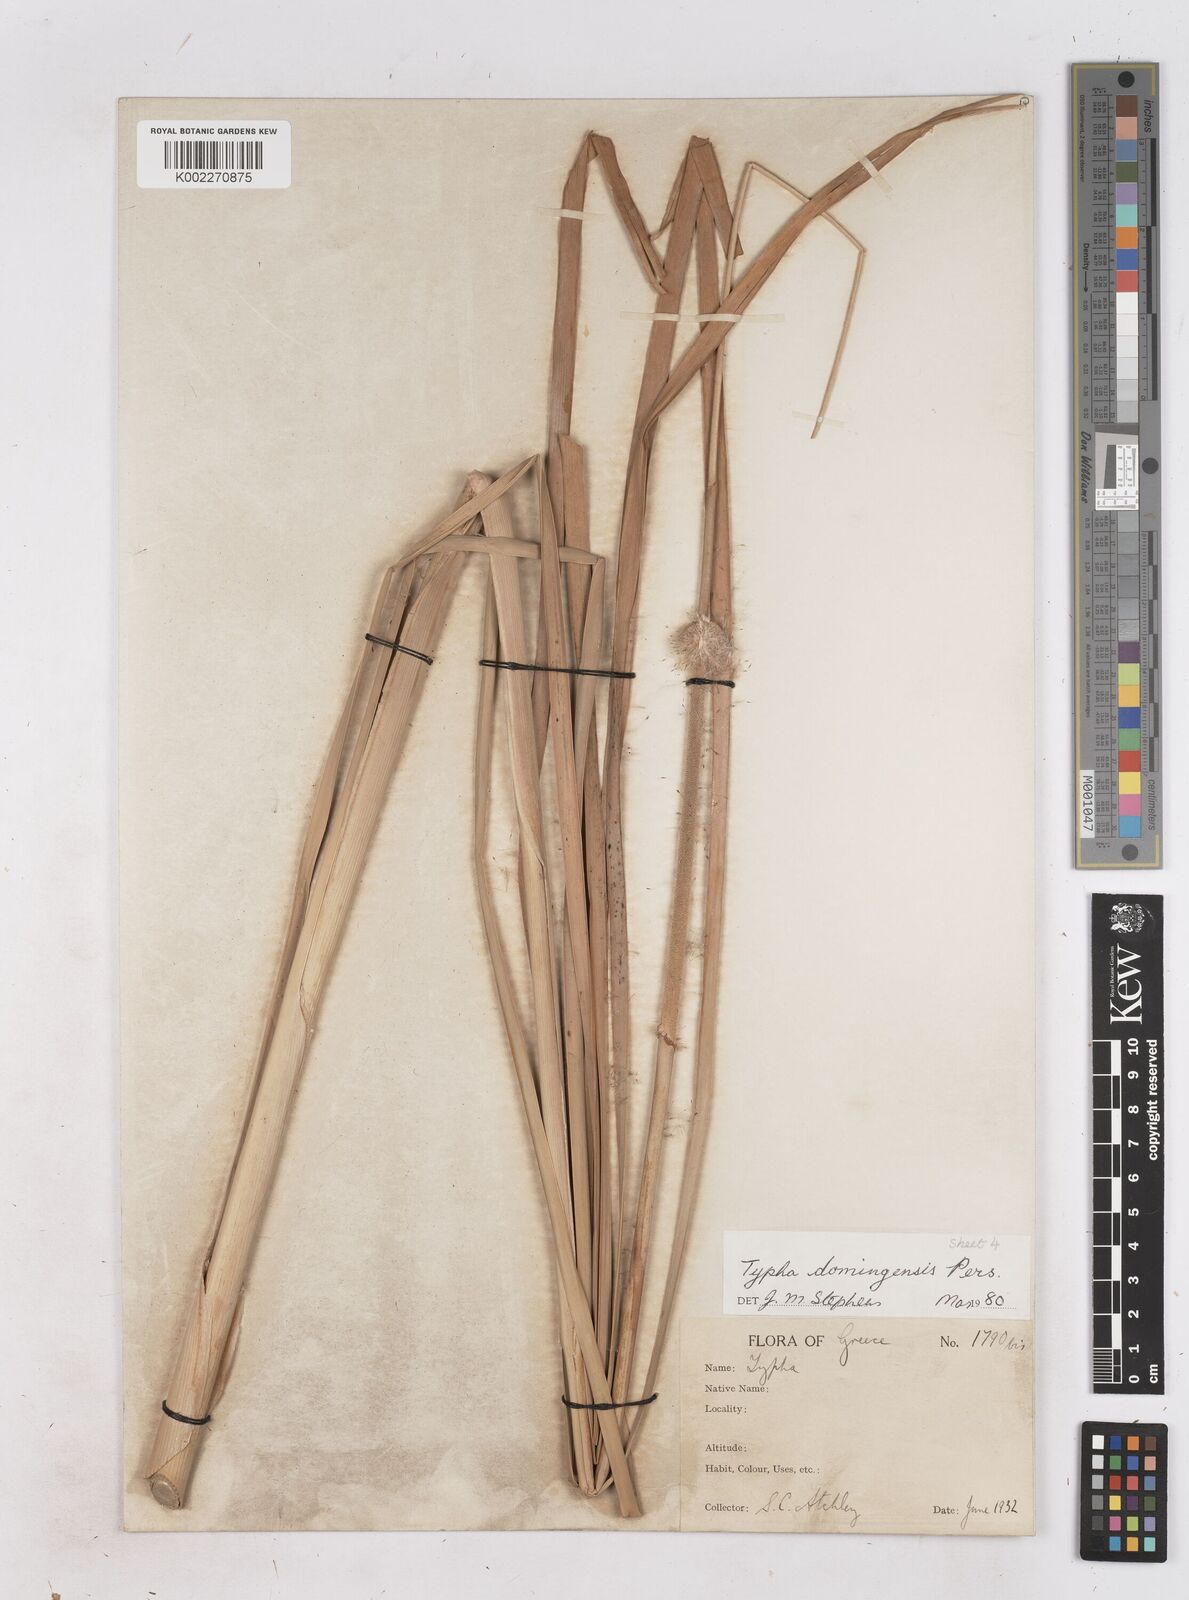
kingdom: Plantae
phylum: Tracheophyta
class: Liliopsida
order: Poales
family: Typhaceae
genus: Typha
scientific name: Typha domingensis
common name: Southern cattail
